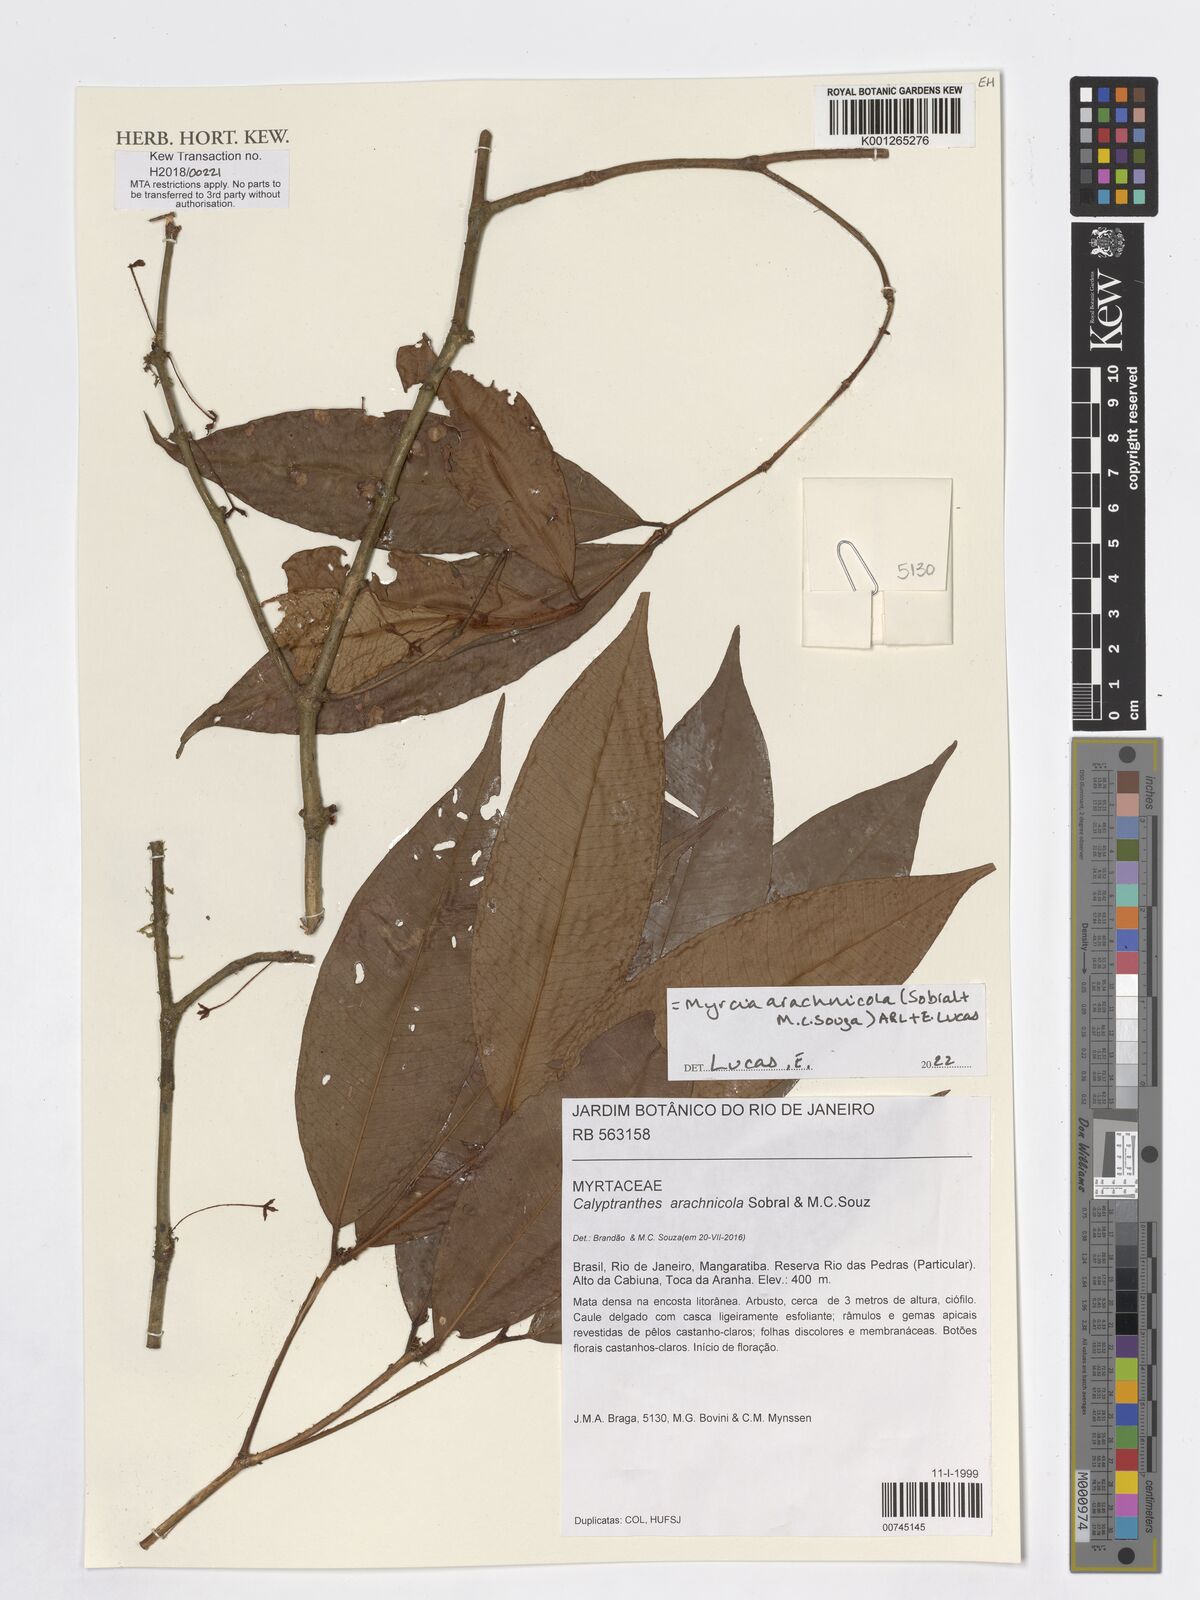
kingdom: Plantae
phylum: Tracheophyta
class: Magnoliopsida
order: Myrtales
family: Myrtaceae
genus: Myrcia
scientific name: Myrcia arachnicola
